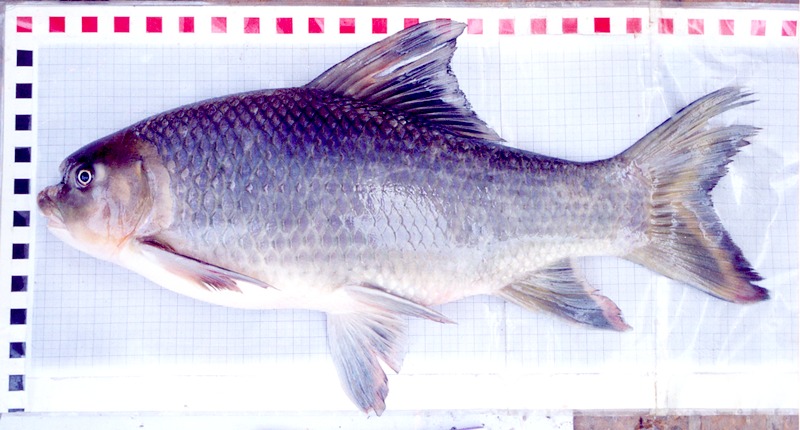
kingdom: Animalia
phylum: Chordata
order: Cypriniformes
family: Cyprinidae
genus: Bangana
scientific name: Bangana behri
